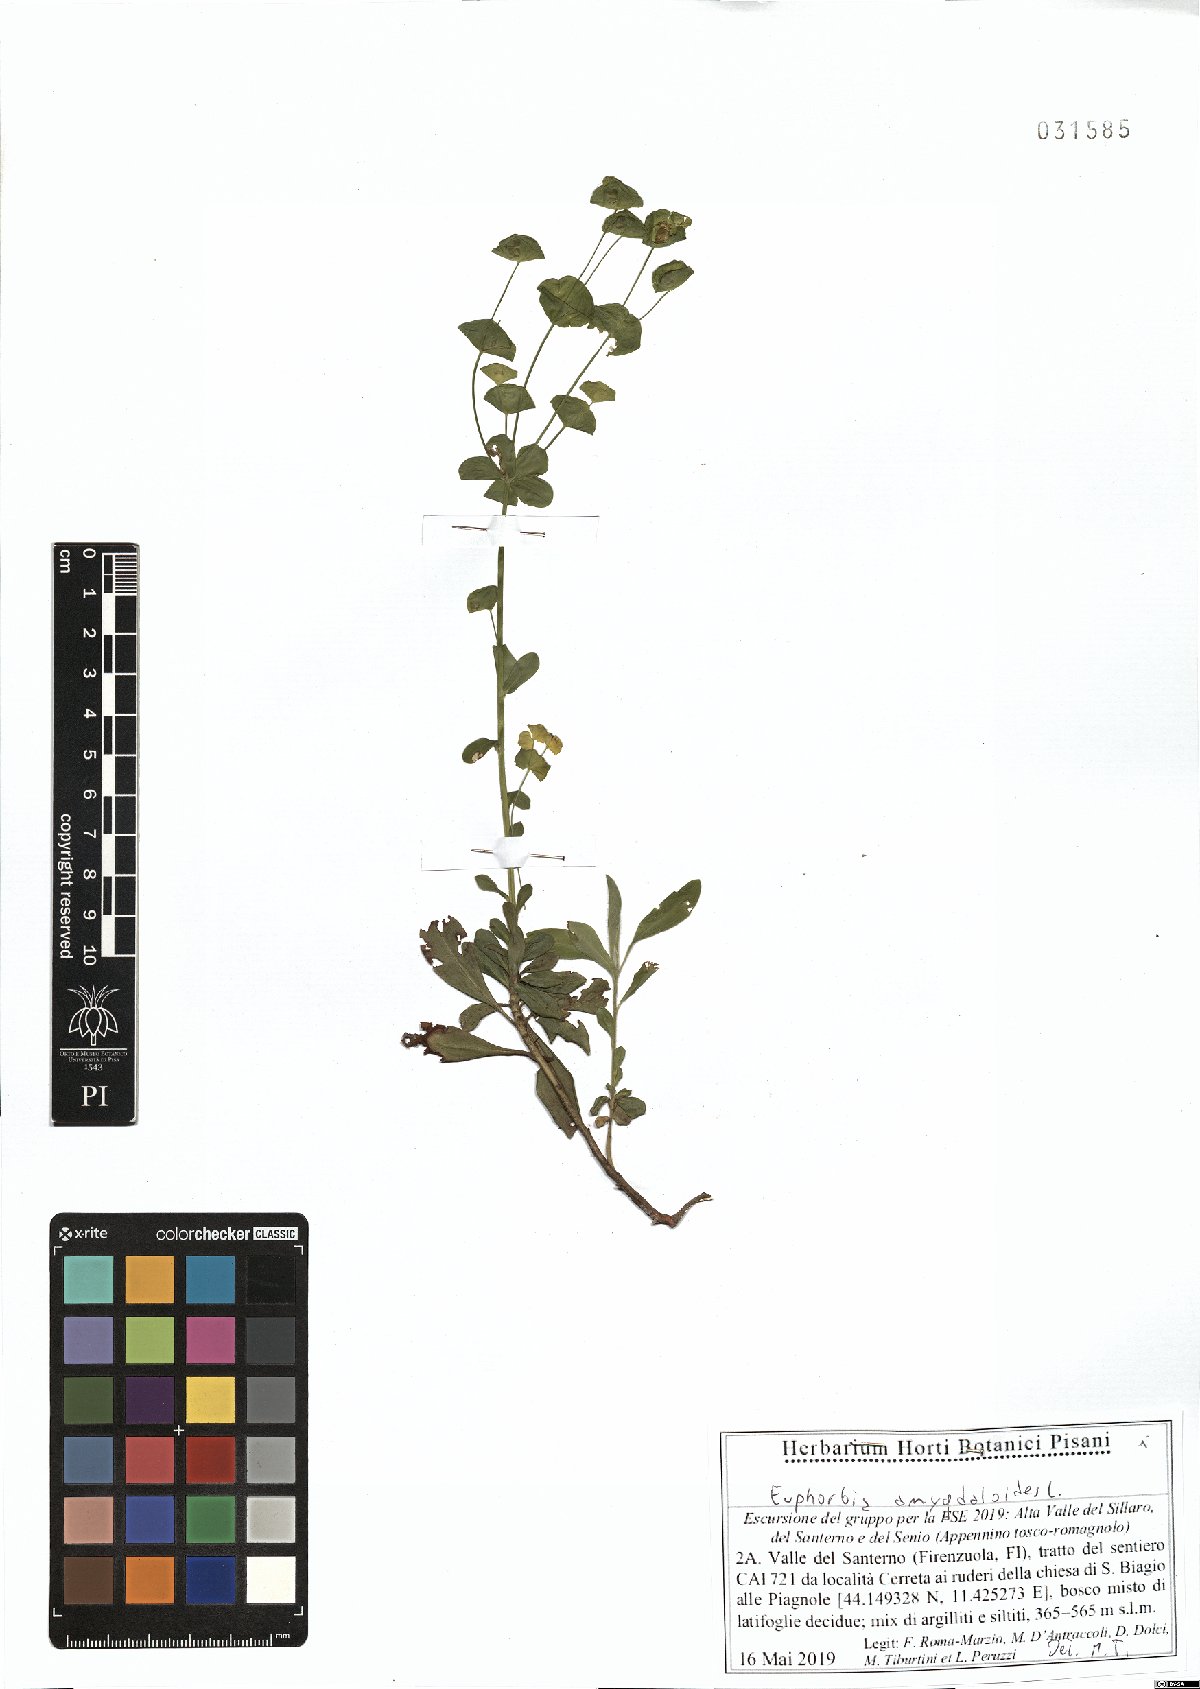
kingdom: Plantae
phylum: Tracheophyta
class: Magnoliopsida
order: Malpighiales
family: Euphorbiaceae
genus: Euphorbia
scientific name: Euphorbia amygdaloides
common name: Wood spurge
